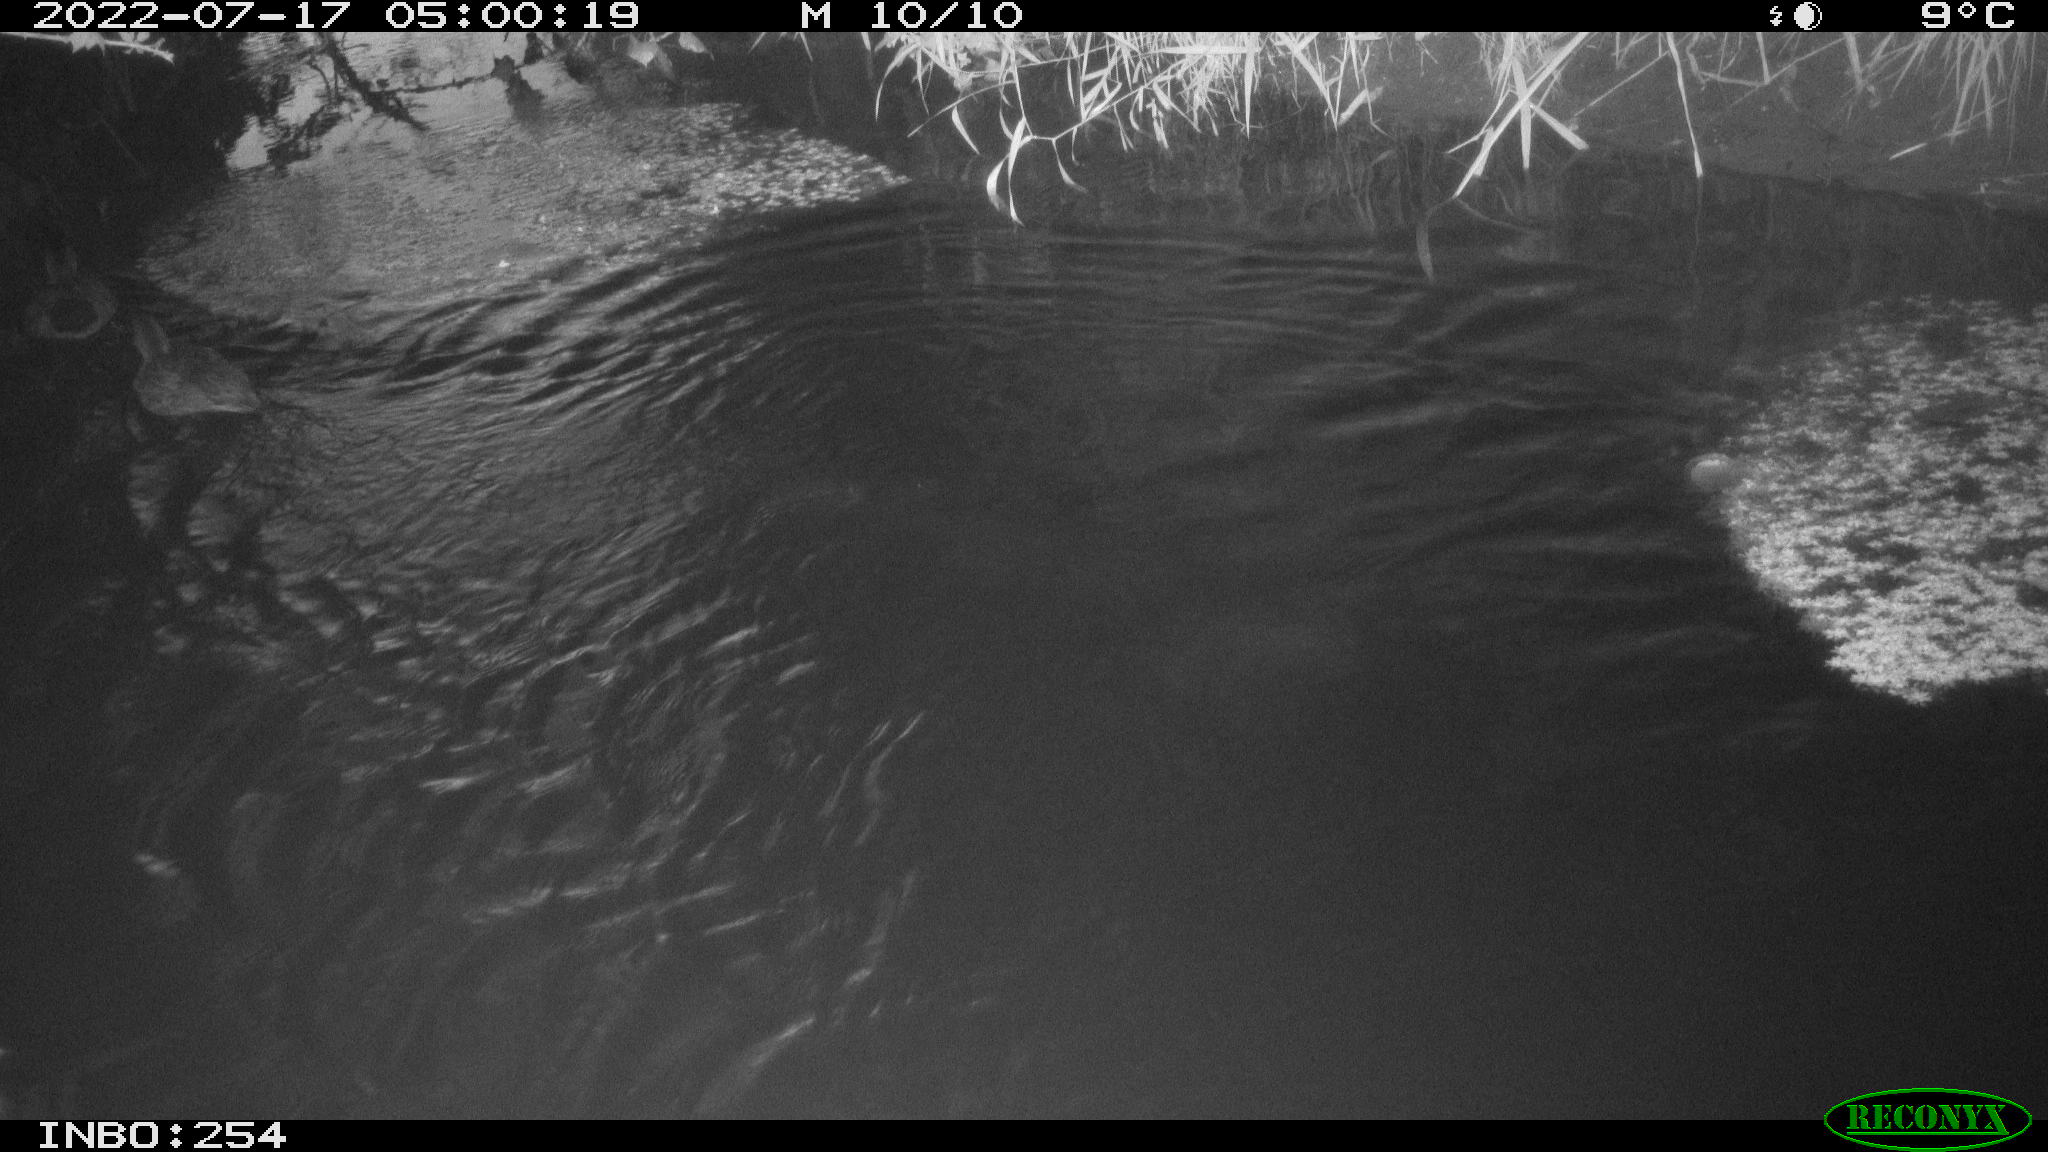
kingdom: Animalia
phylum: Chordata
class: Aves
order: Anseriformes
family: Anatidae
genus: Anas
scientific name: Anas platyrhynchos
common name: Mallard
